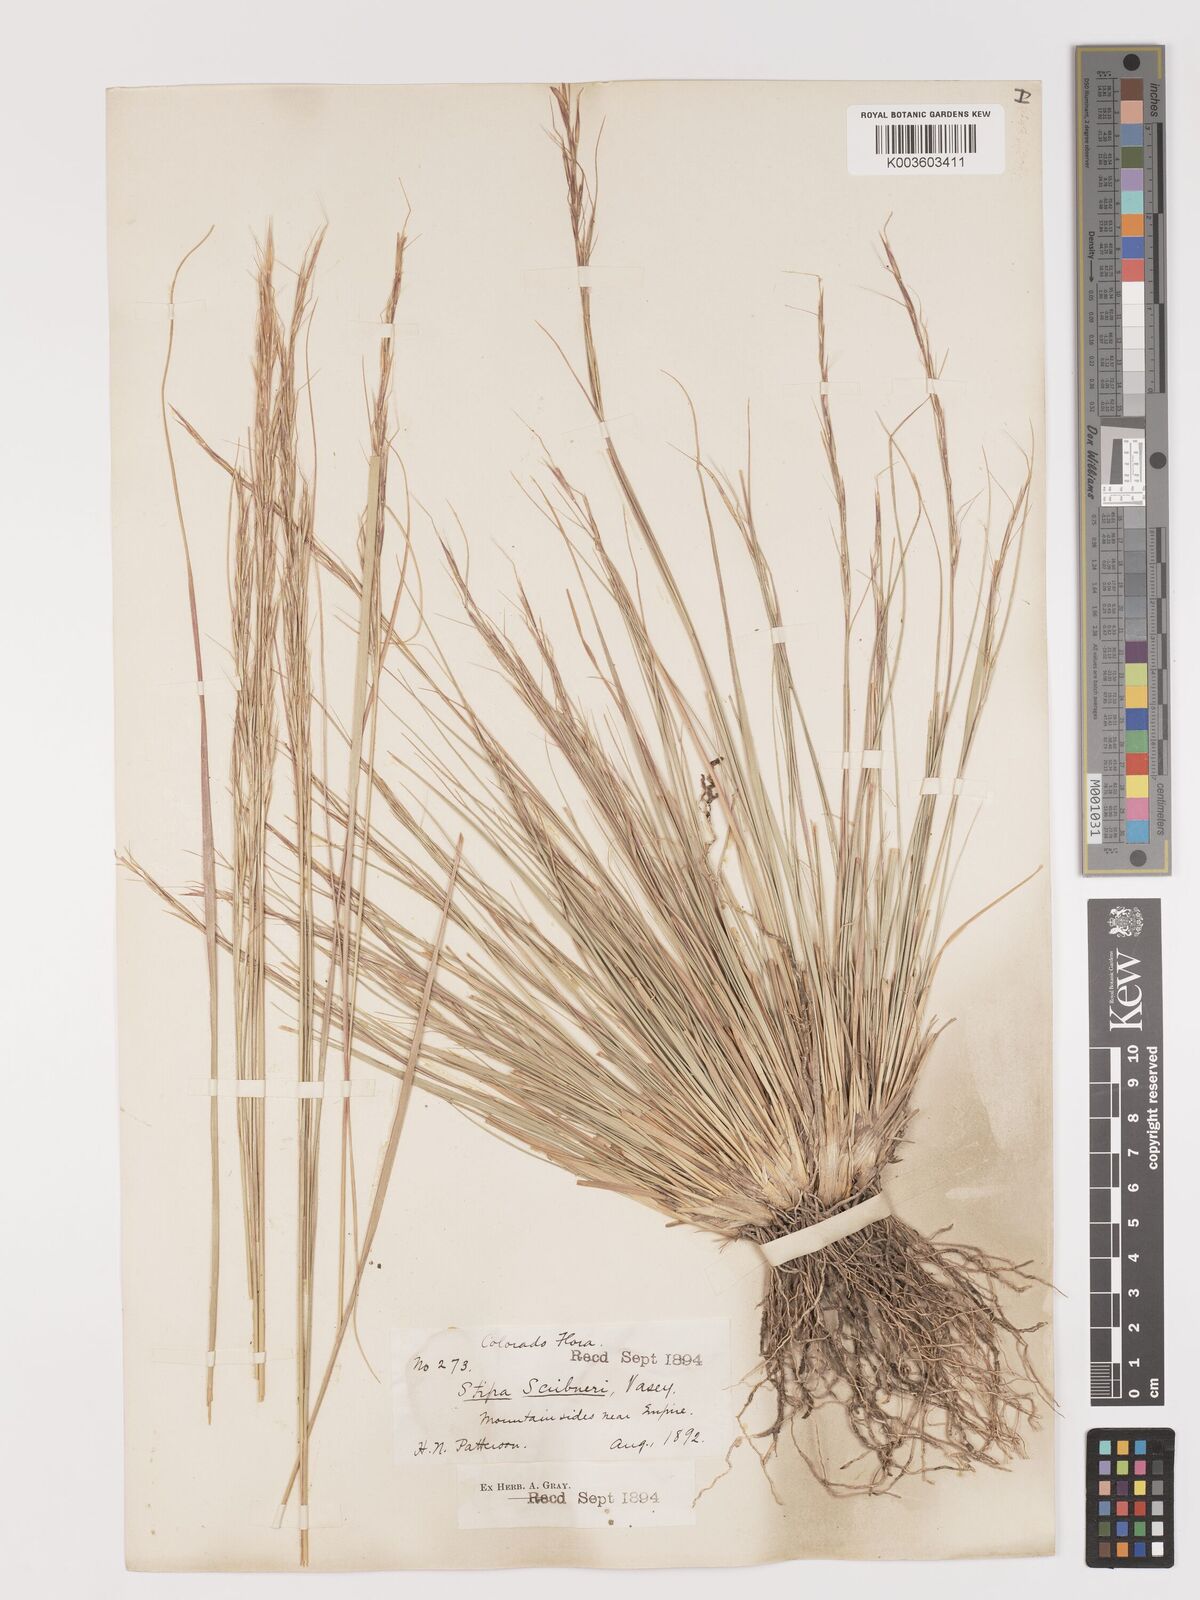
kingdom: Plantae
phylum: Tracheophyta
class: Liliopsida
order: Poales
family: Poaceae
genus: Eriocoma
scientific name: Eriocoma scribneri
